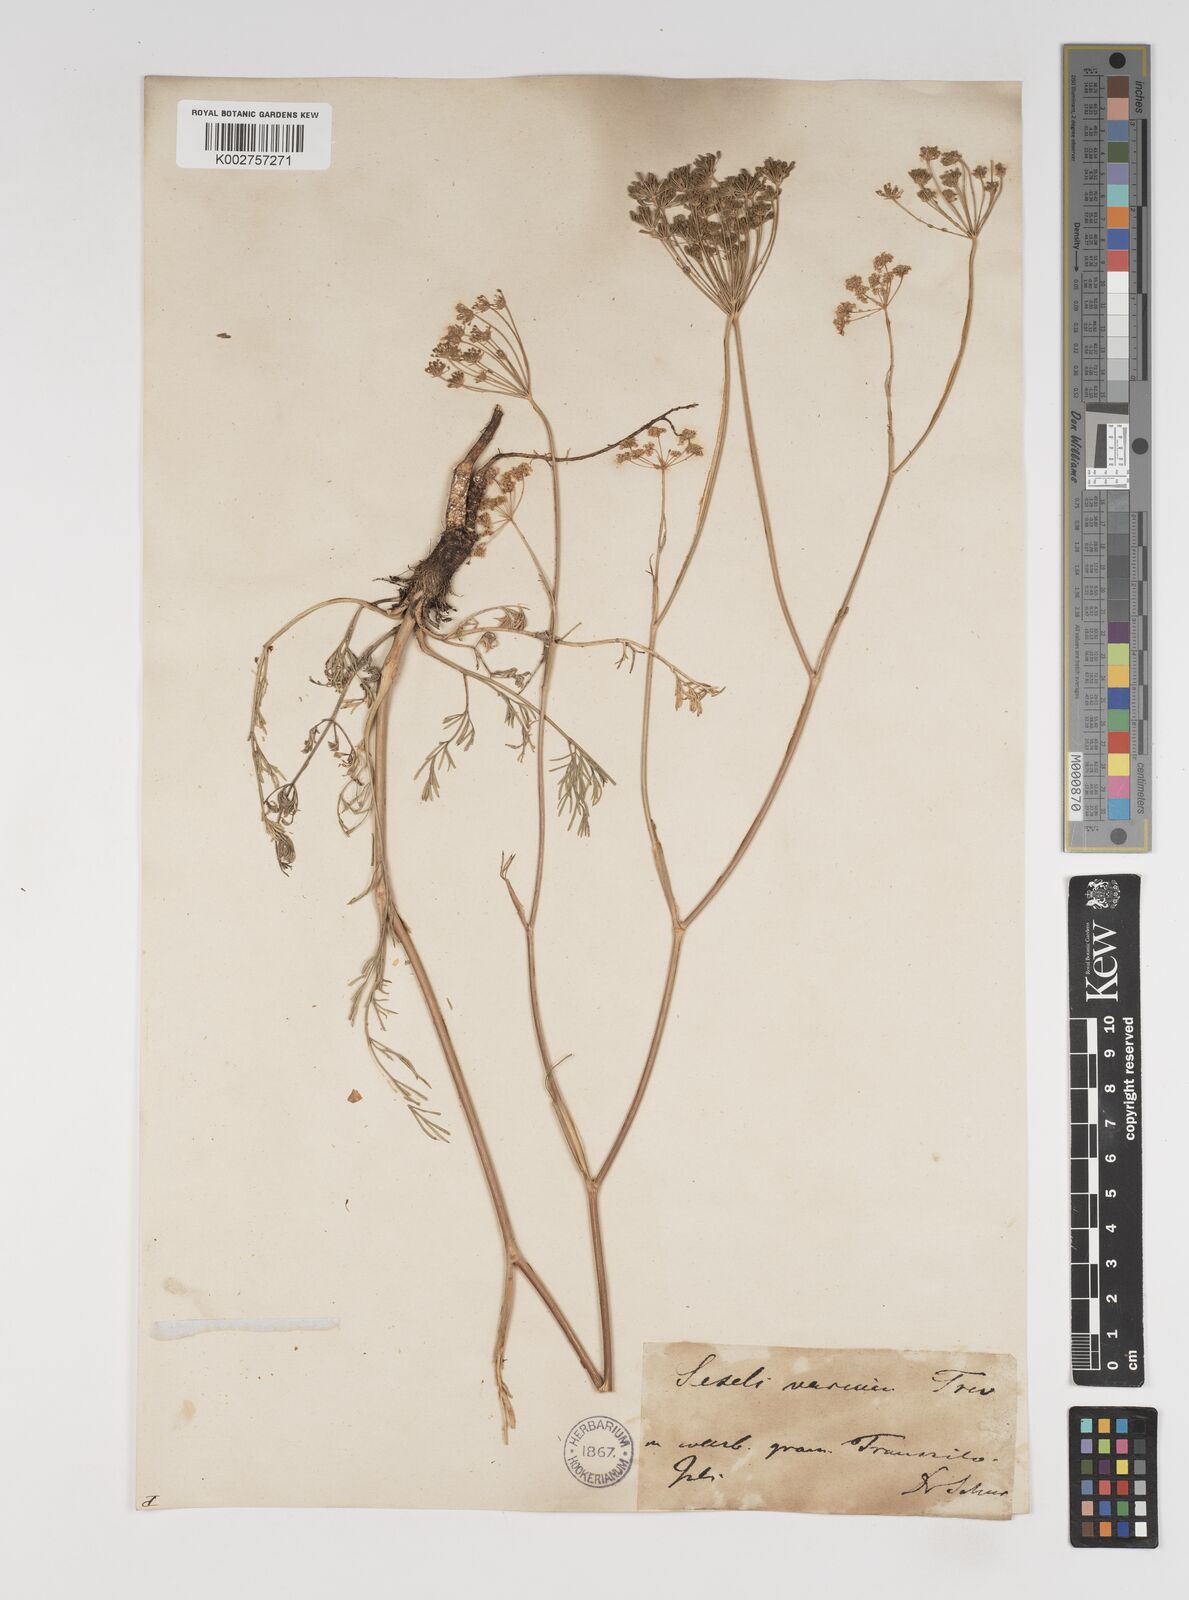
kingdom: Plantae
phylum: Tracheophyta
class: Magnoliopsida
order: Apiales
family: Apiaceae
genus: Seseli
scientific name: Seseli pallasii
